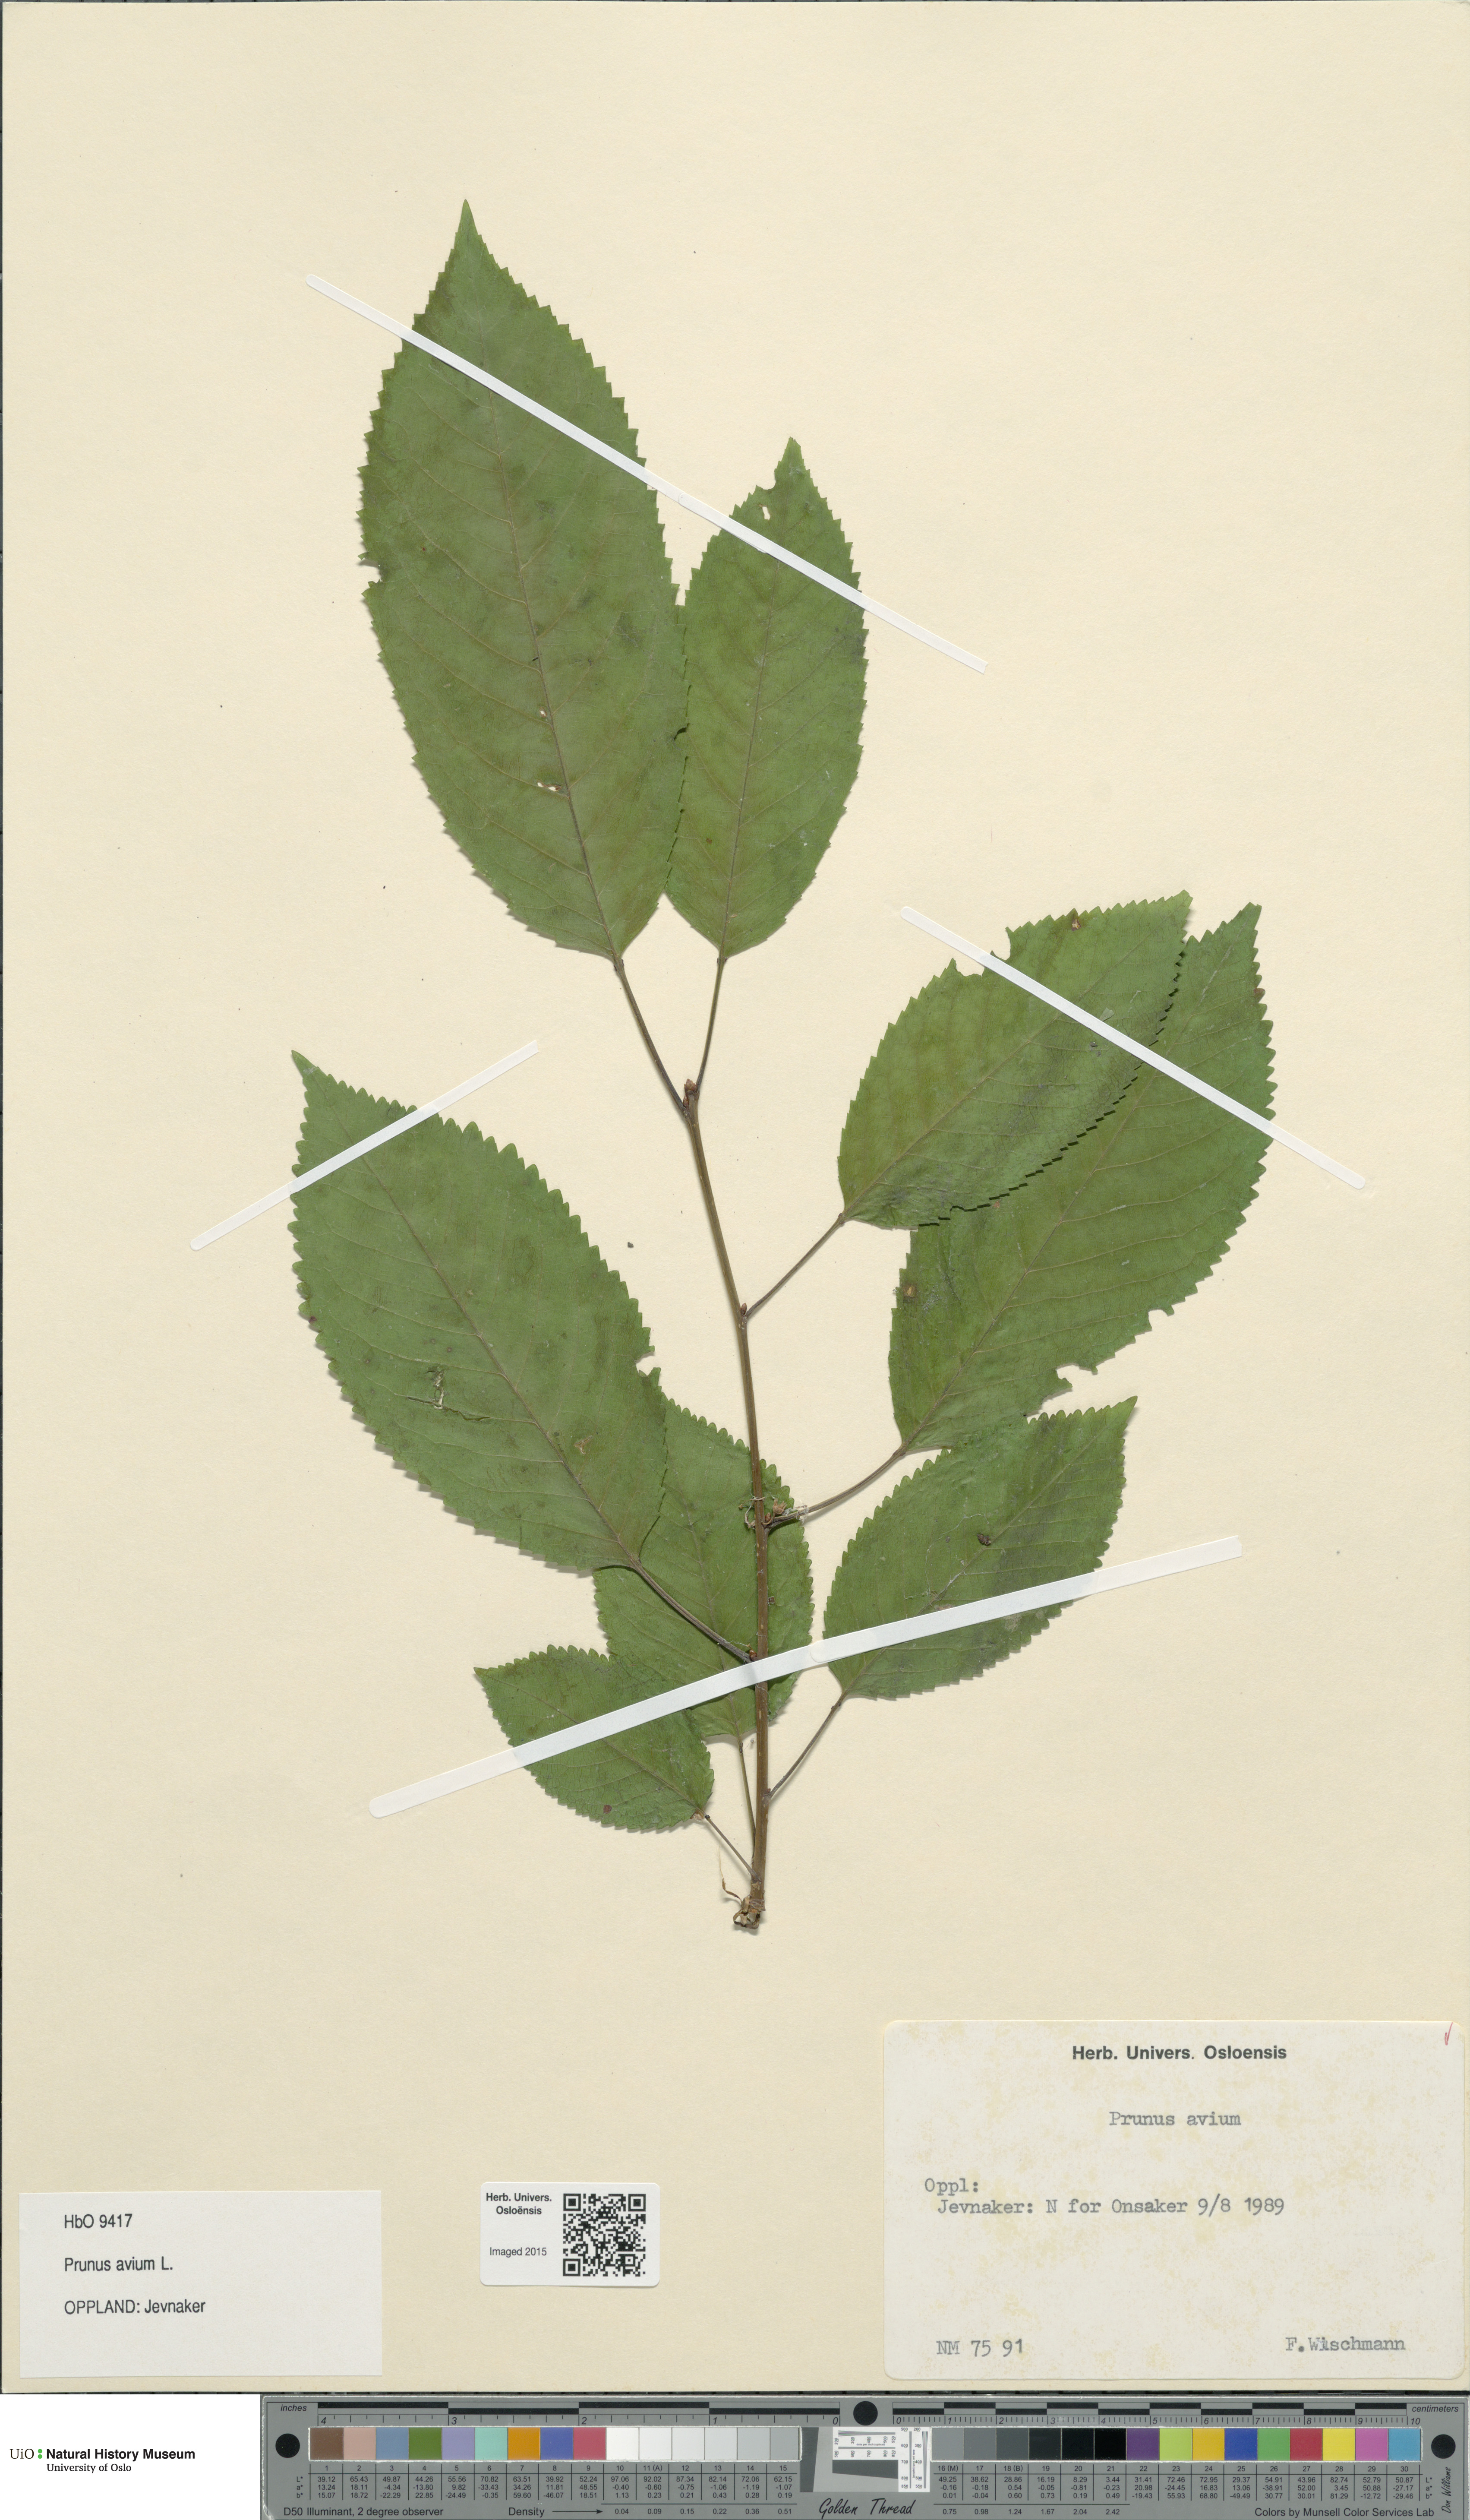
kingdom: Plantae
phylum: Tracheophyta
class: Magnoliopsida
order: Rosales
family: Rosaceae
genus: Prunus
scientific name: Prunus avium
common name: Sweet cherry
